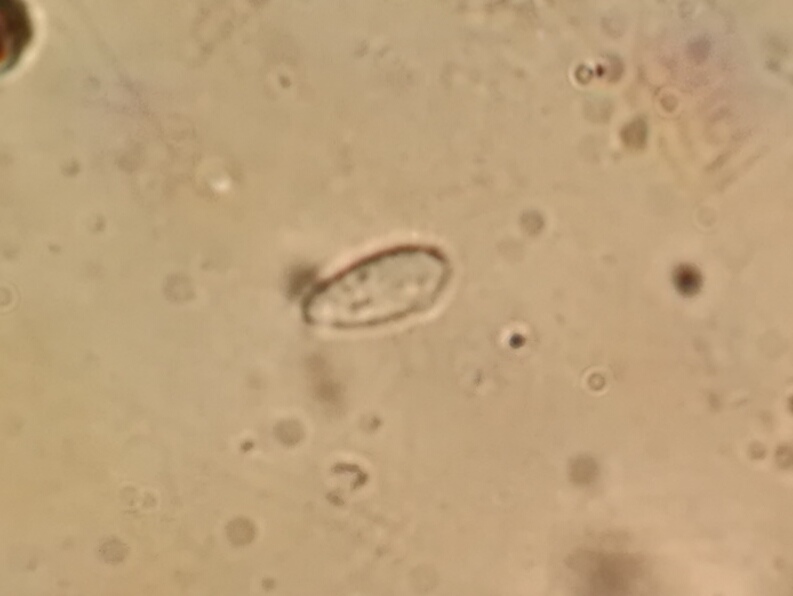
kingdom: Fungi
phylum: Ascomycota
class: Leotiomycetes
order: Helotiales
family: Helotiaceae
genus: Hymenoscyphus
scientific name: Hymenoscyphus
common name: stilkskive
